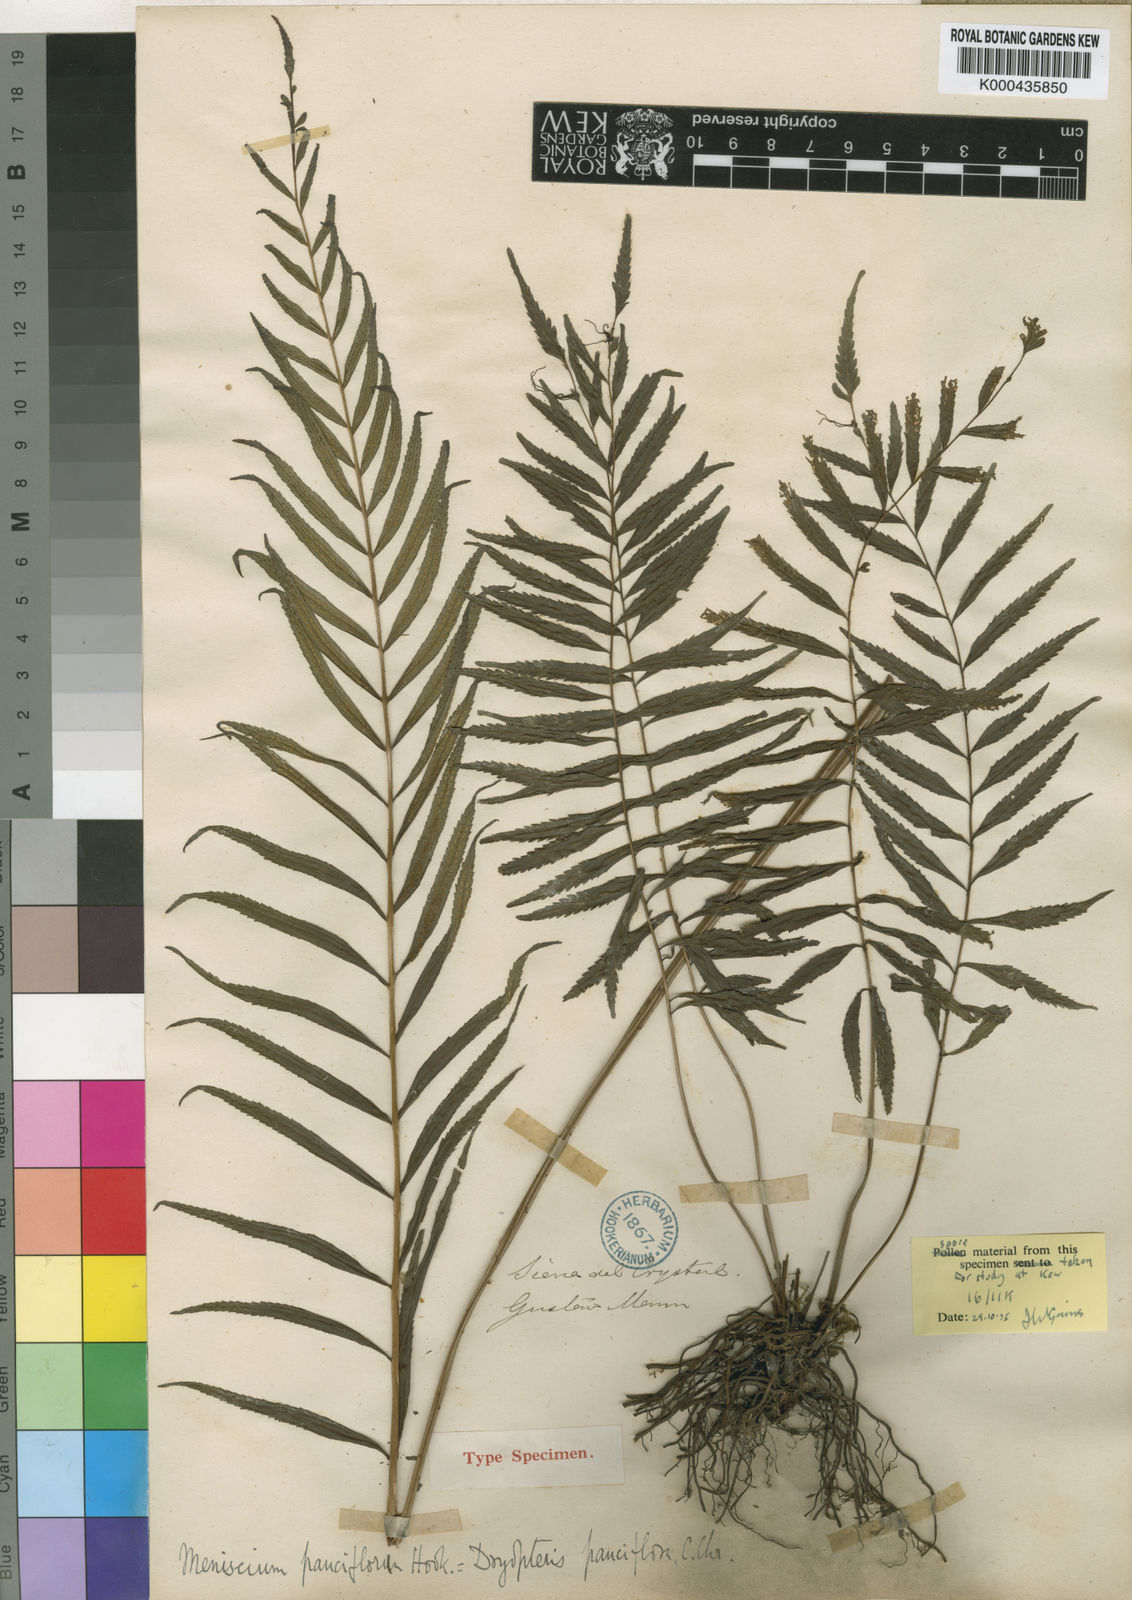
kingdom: Plantae
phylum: Tracheophyta
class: Polypodiopsida
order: Polypodiales
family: Thelypteridaceae
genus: Menisorus
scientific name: Menisorus pauciflorus
